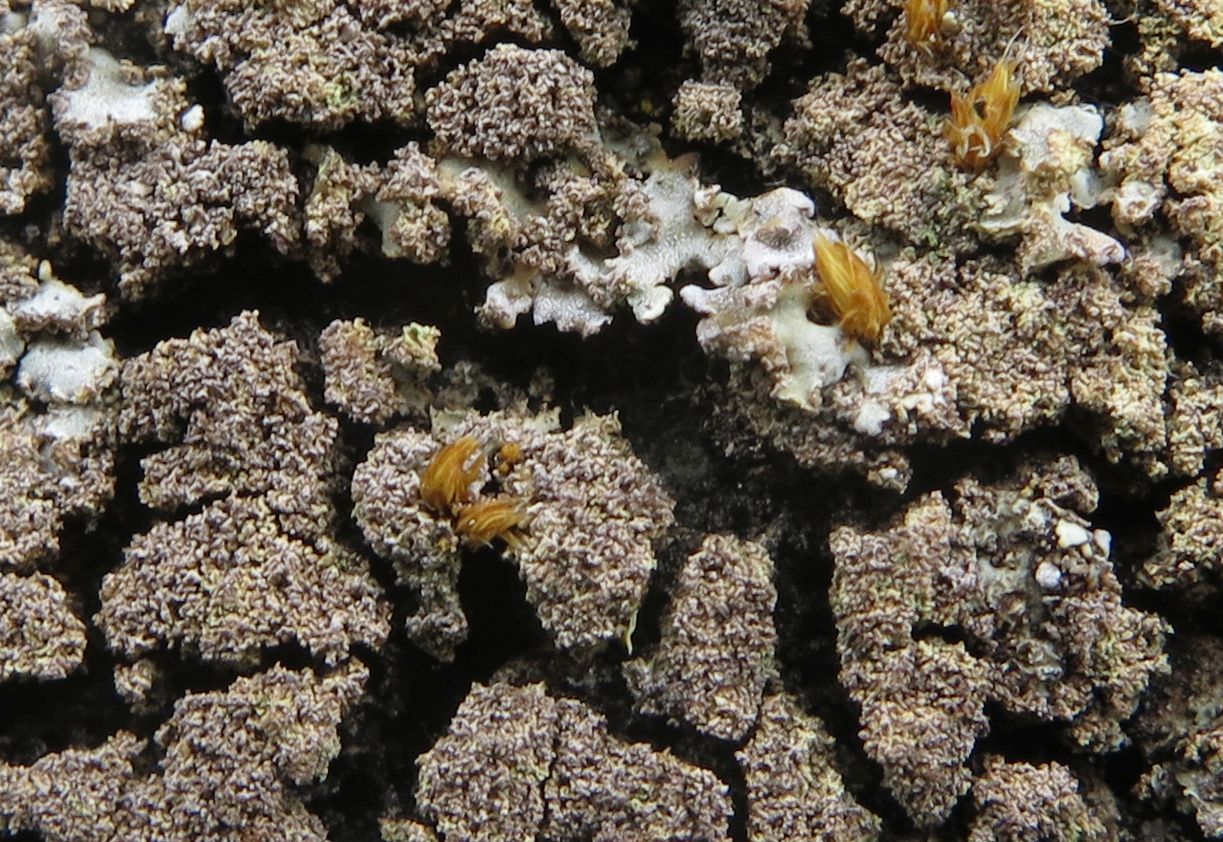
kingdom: Fungi
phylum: Ascomycota
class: Lecanoromycetes
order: Caliciales
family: Physciaceae
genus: Poeltonia
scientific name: Poeltonia grisea
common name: hvidgrå dugrosetlav
